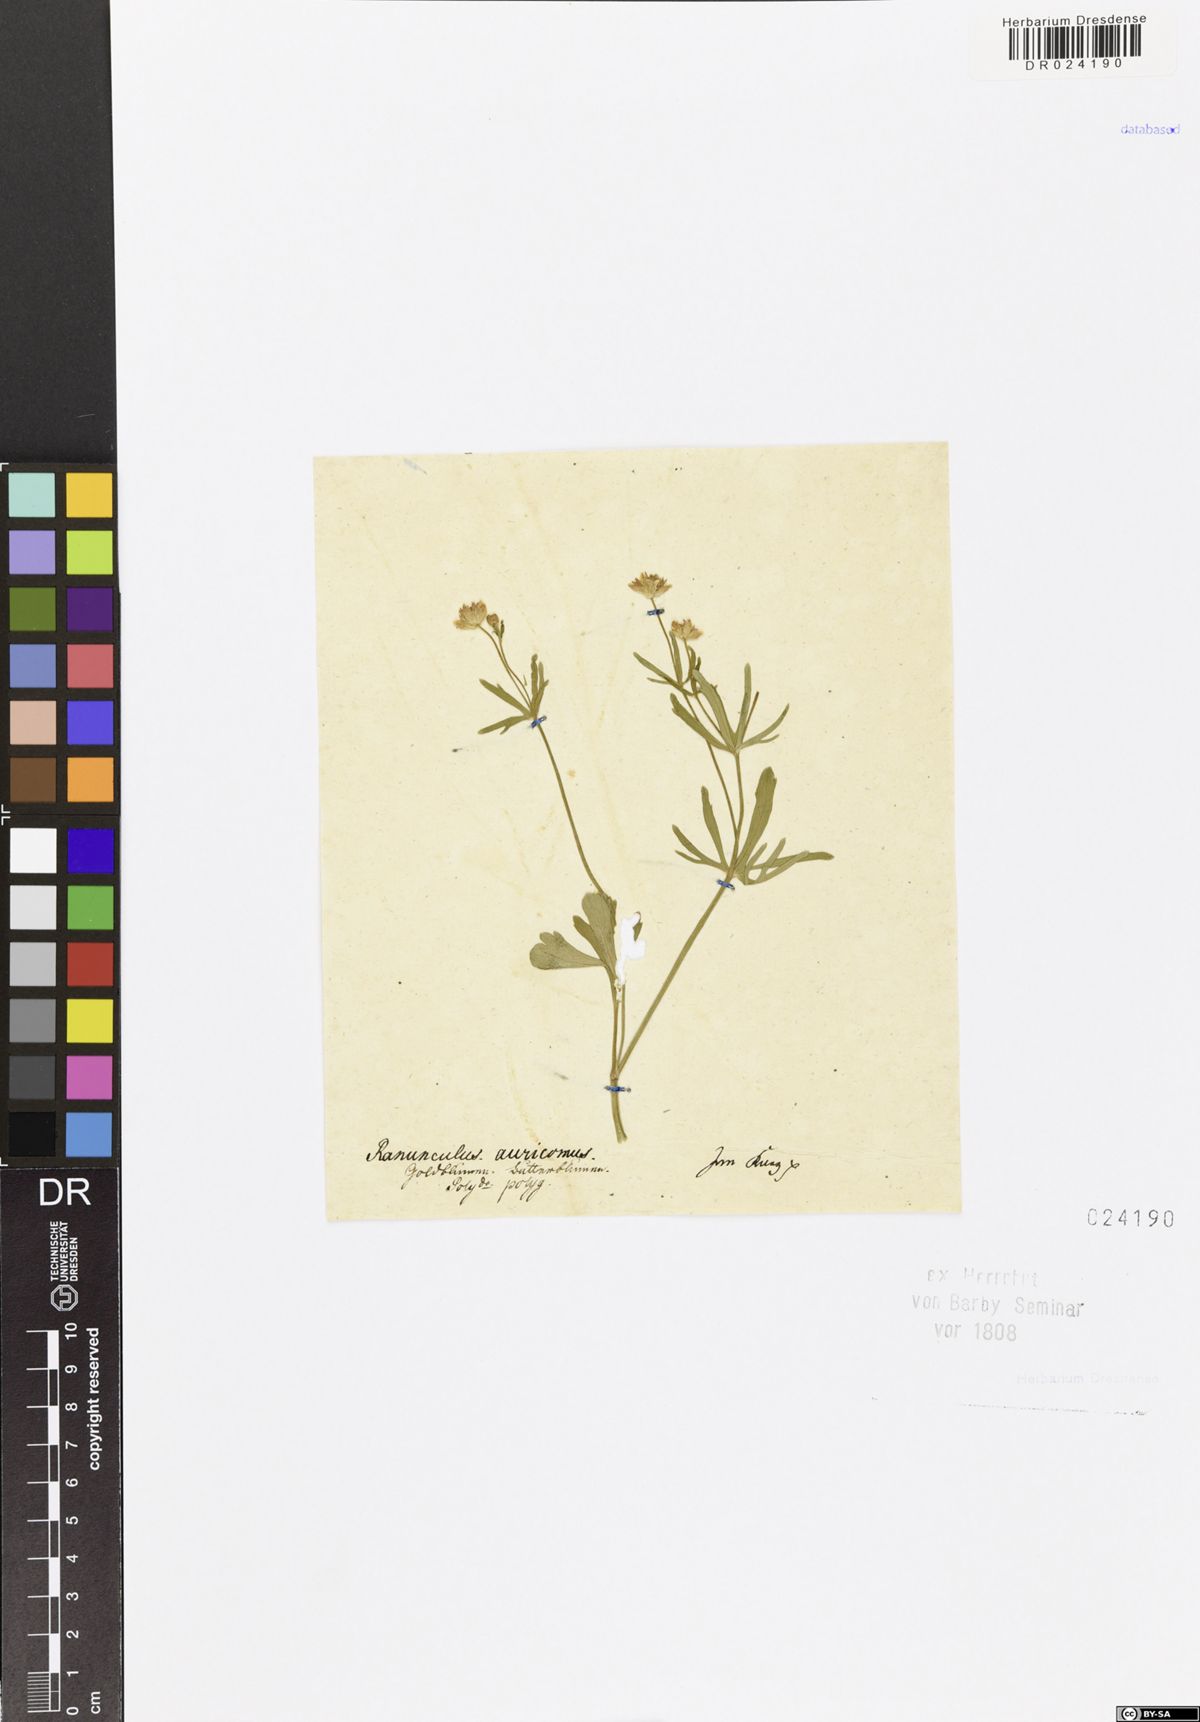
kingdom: Plantae
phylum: Tracheophyta
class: Magnoliopsida
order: Ranunculales
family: Ranunculaceae
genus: Ranunculus
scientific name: Ranunculus auricomus
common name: Goldilocks buttercup
